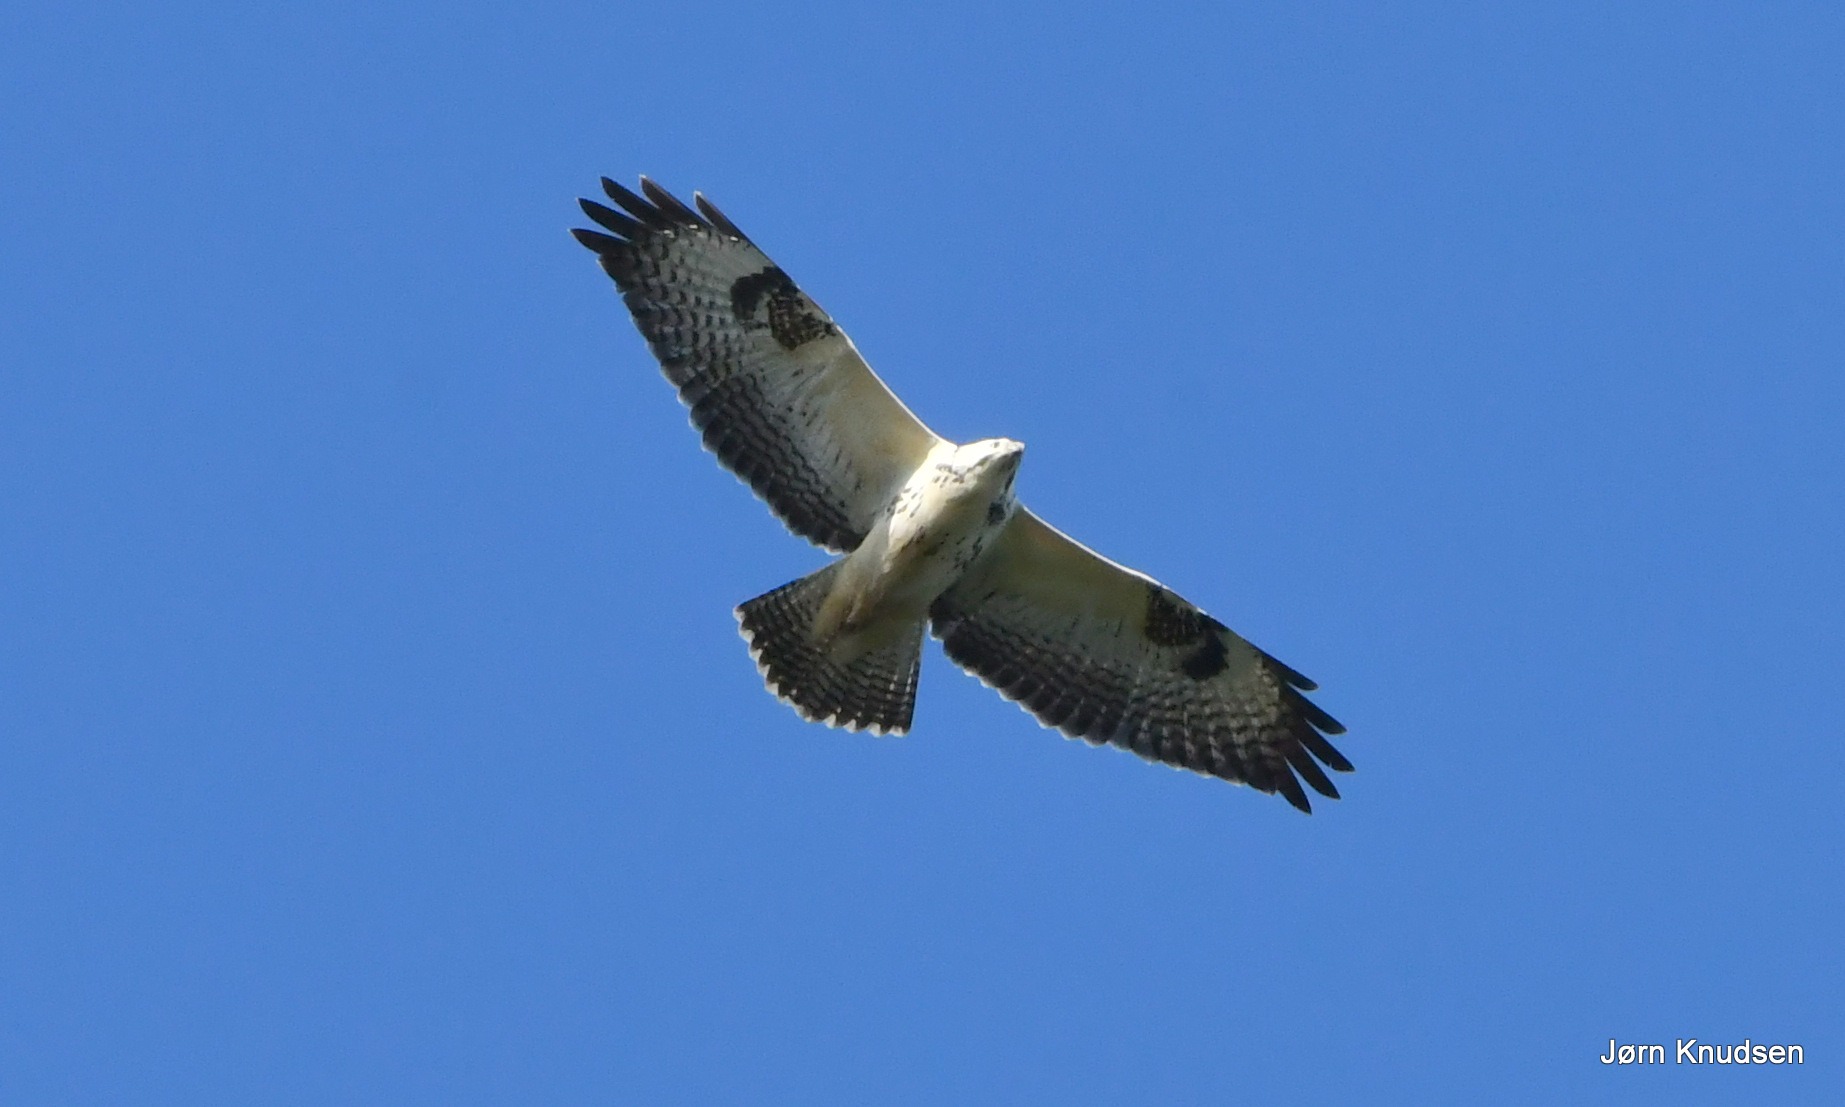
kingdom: Animalia
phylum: Chordata
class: Aves
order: Accipitriformes
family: Accipitridae
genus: Buteo
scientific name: Buteo buteo
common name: Musvåge
